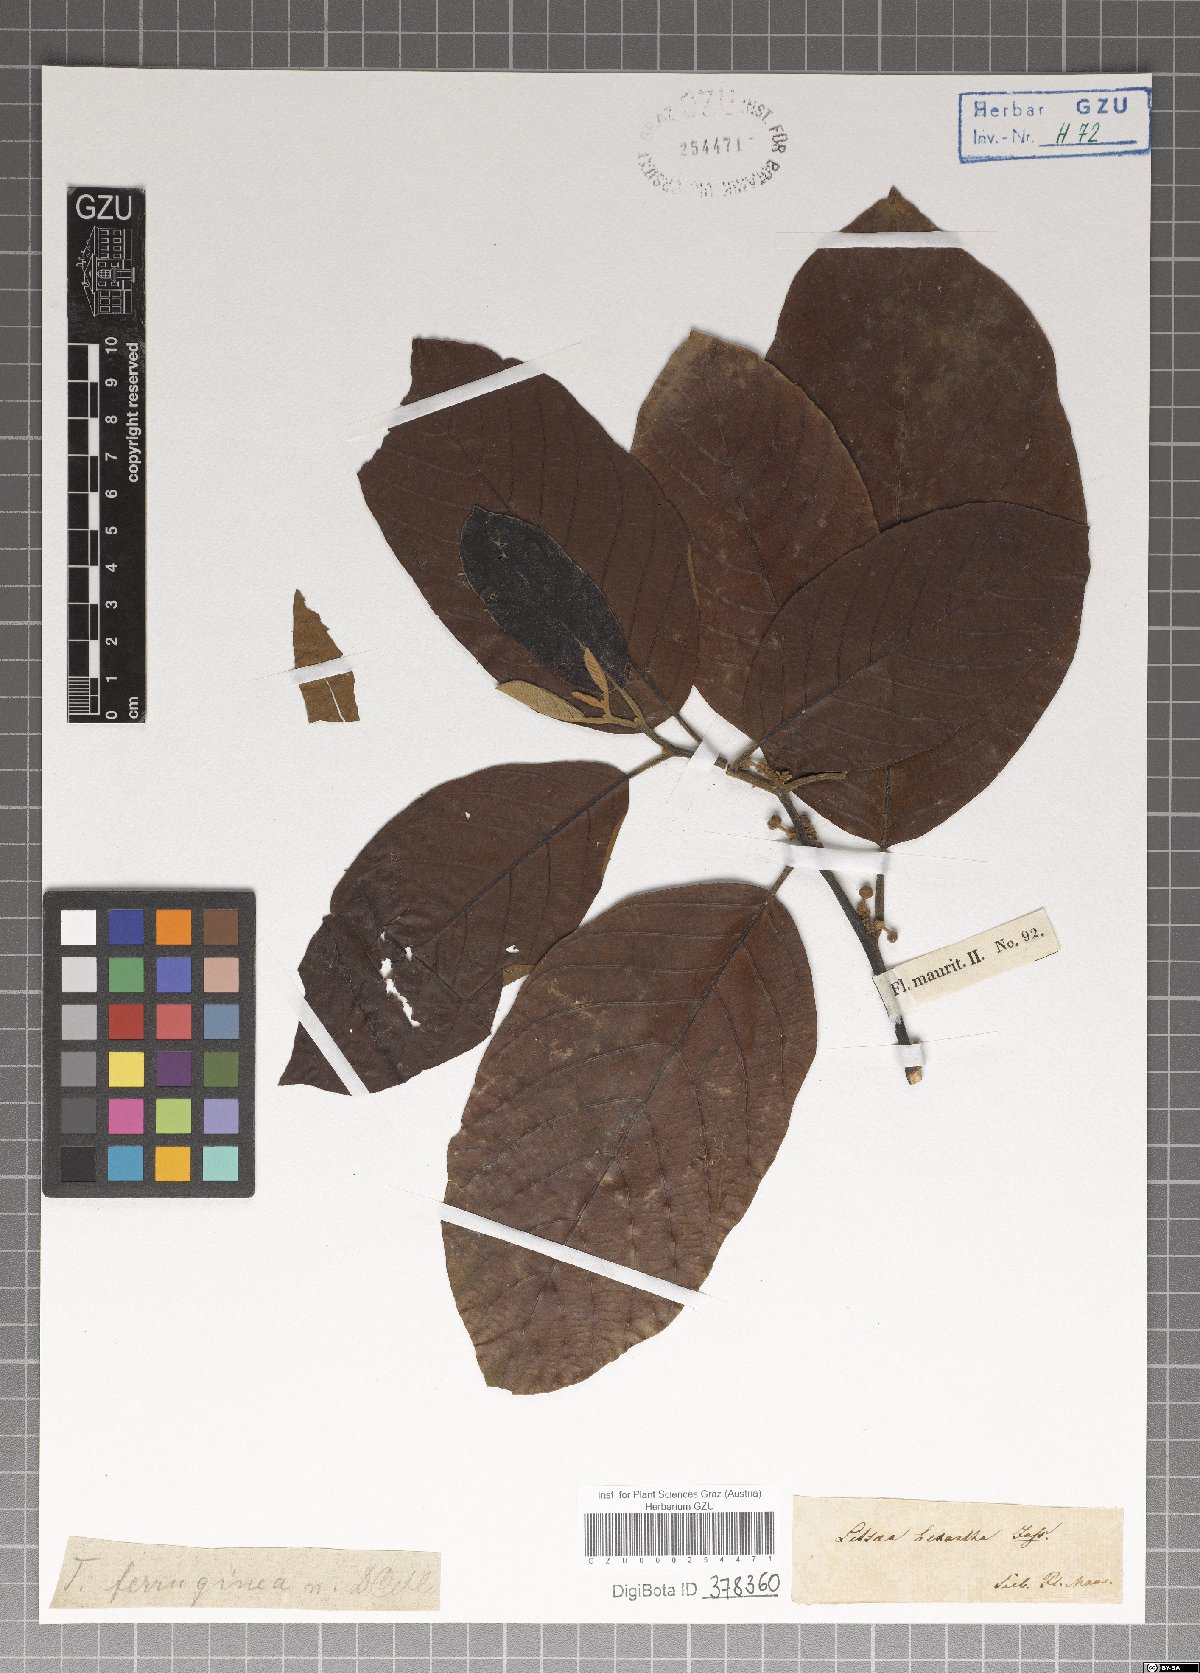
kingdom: Plantae
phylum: Tracheophyta
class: Magnoliopsida
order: Laurales
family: Lauraceae
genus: Endiandra
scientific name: Endiandra pubens
